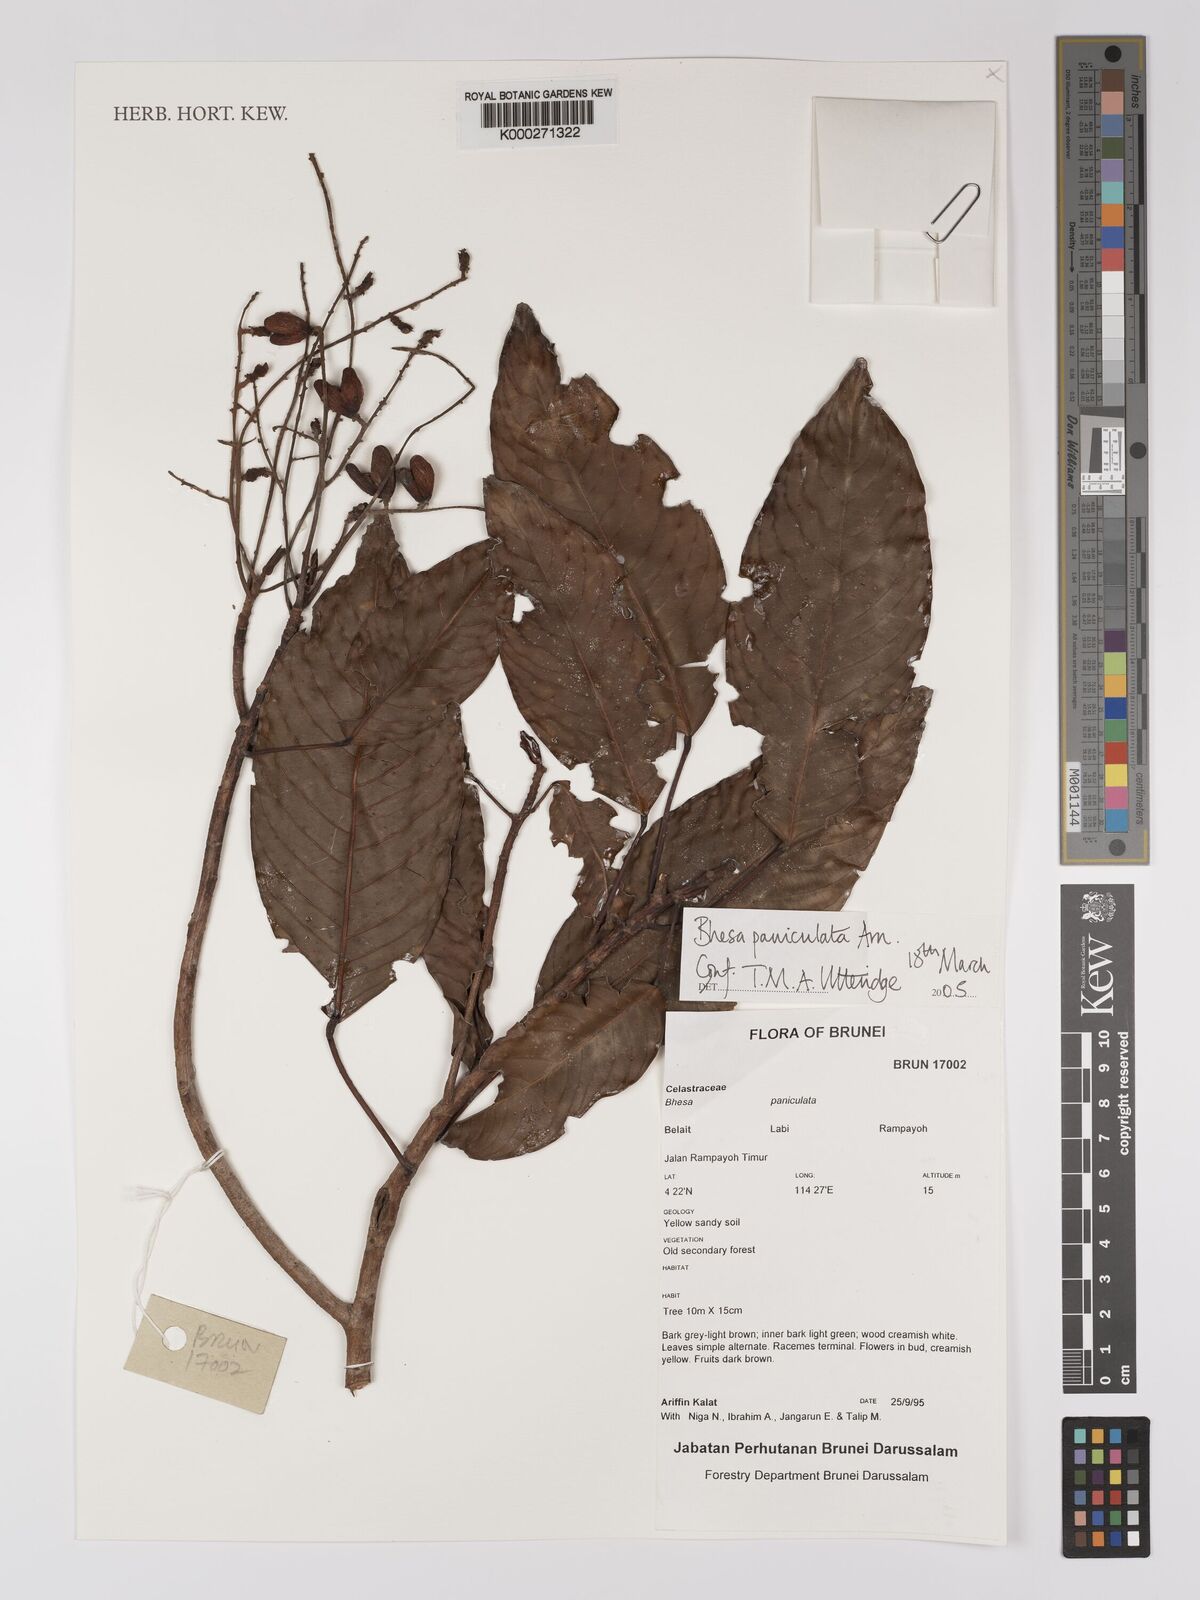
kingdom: Plantae
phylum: Tracheophyta
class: Magnoliopsida
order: Malpighiales
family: Centroplacaceae
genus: Bhesa
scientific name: Bhesa paniculata
